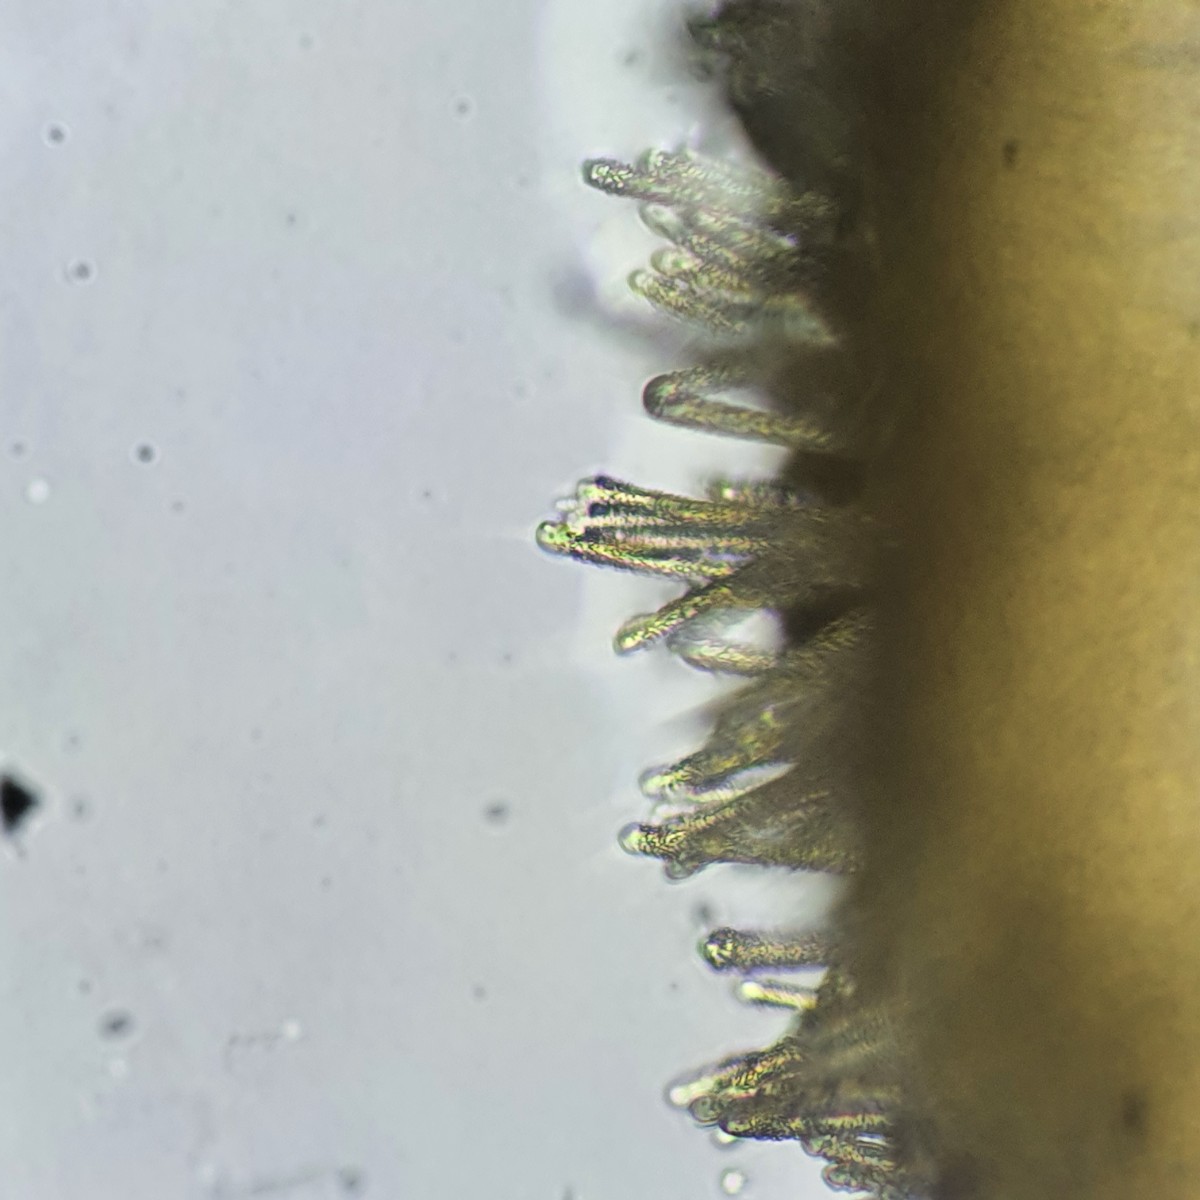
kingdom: Fungi
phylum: Ascomycota
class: Leotiomycetes
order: Helotiales
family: Lachnaceae
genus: Lachnum
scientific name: Lachnum brevipilosum
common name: korthåret frynseskive
